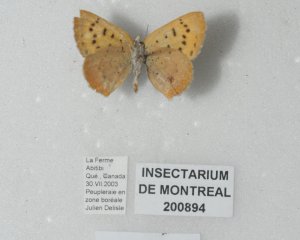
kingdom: Animalia
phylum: Arthropoda
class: Insecta
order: Lepidoptera
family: Lycaenidae
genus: Epidemia
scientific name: Epidemia dorcas
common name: Dorcas Copper
